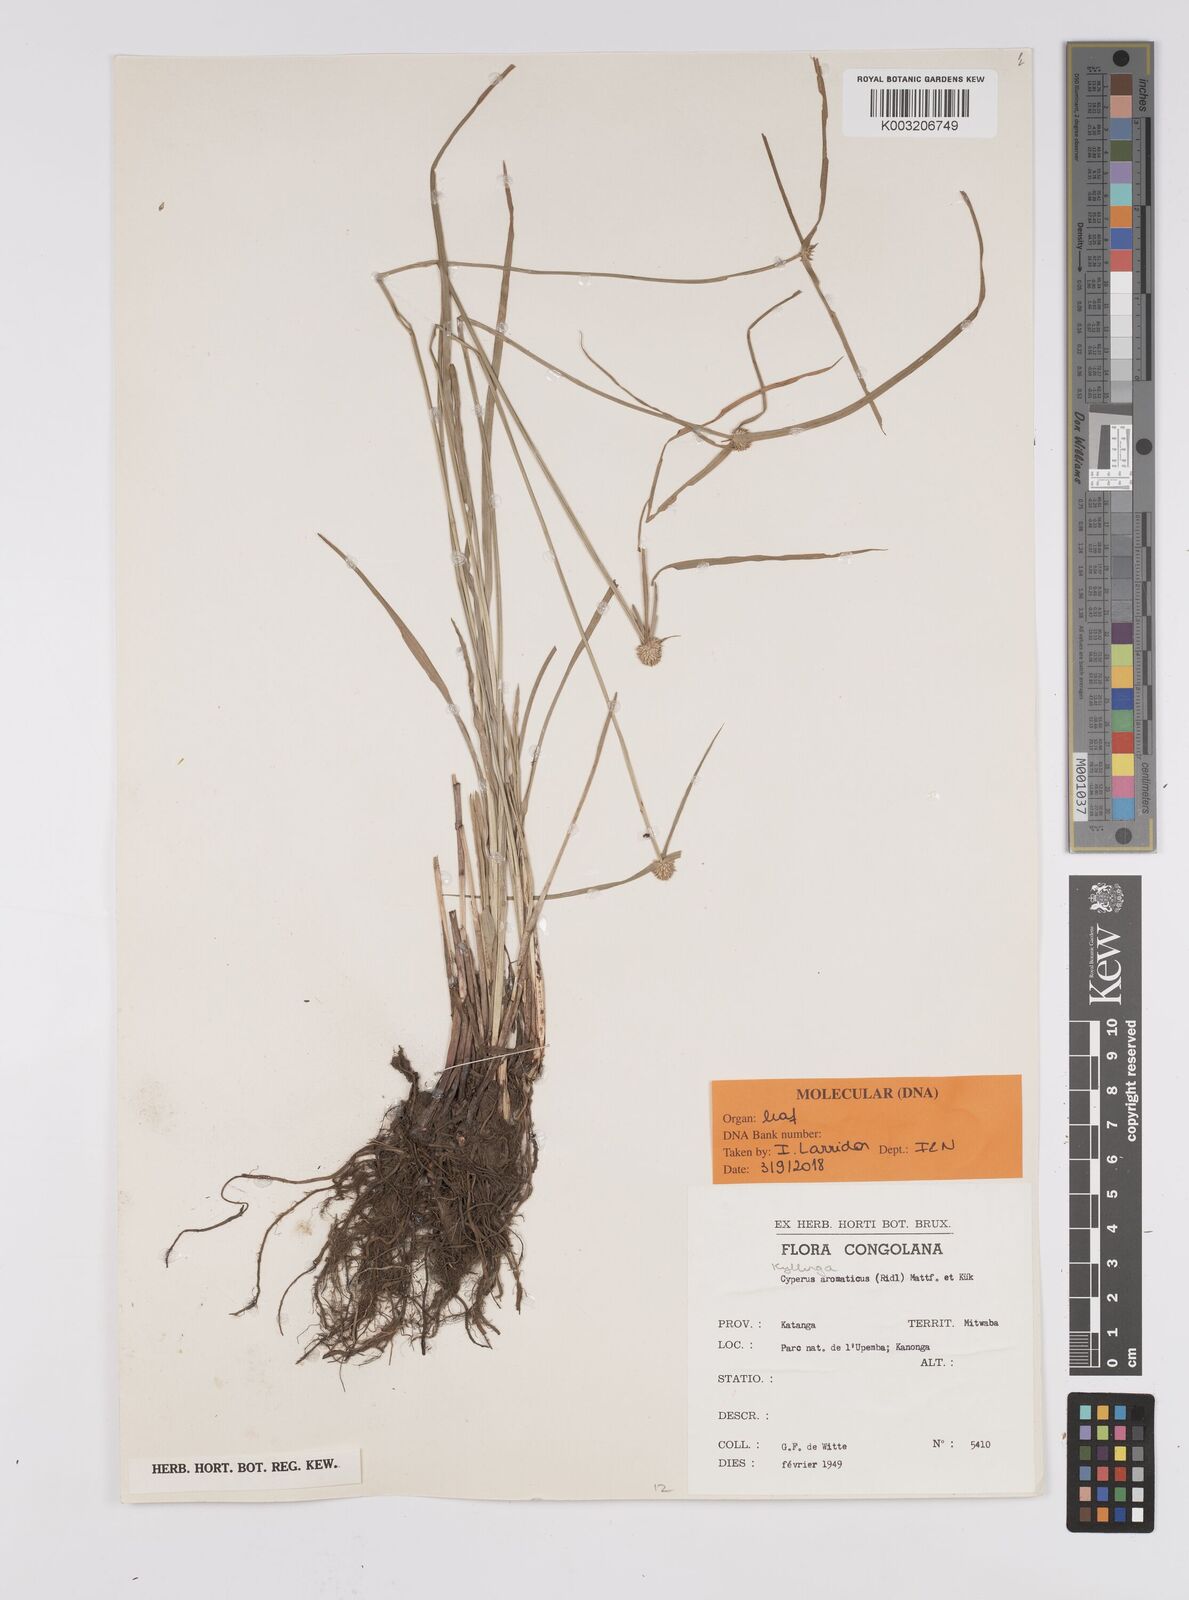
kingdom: Plantae
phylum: Tracheophyta
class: Liliopsida
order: Poales
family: Cyperaceae
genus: Cyperus
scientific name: Cyperus
